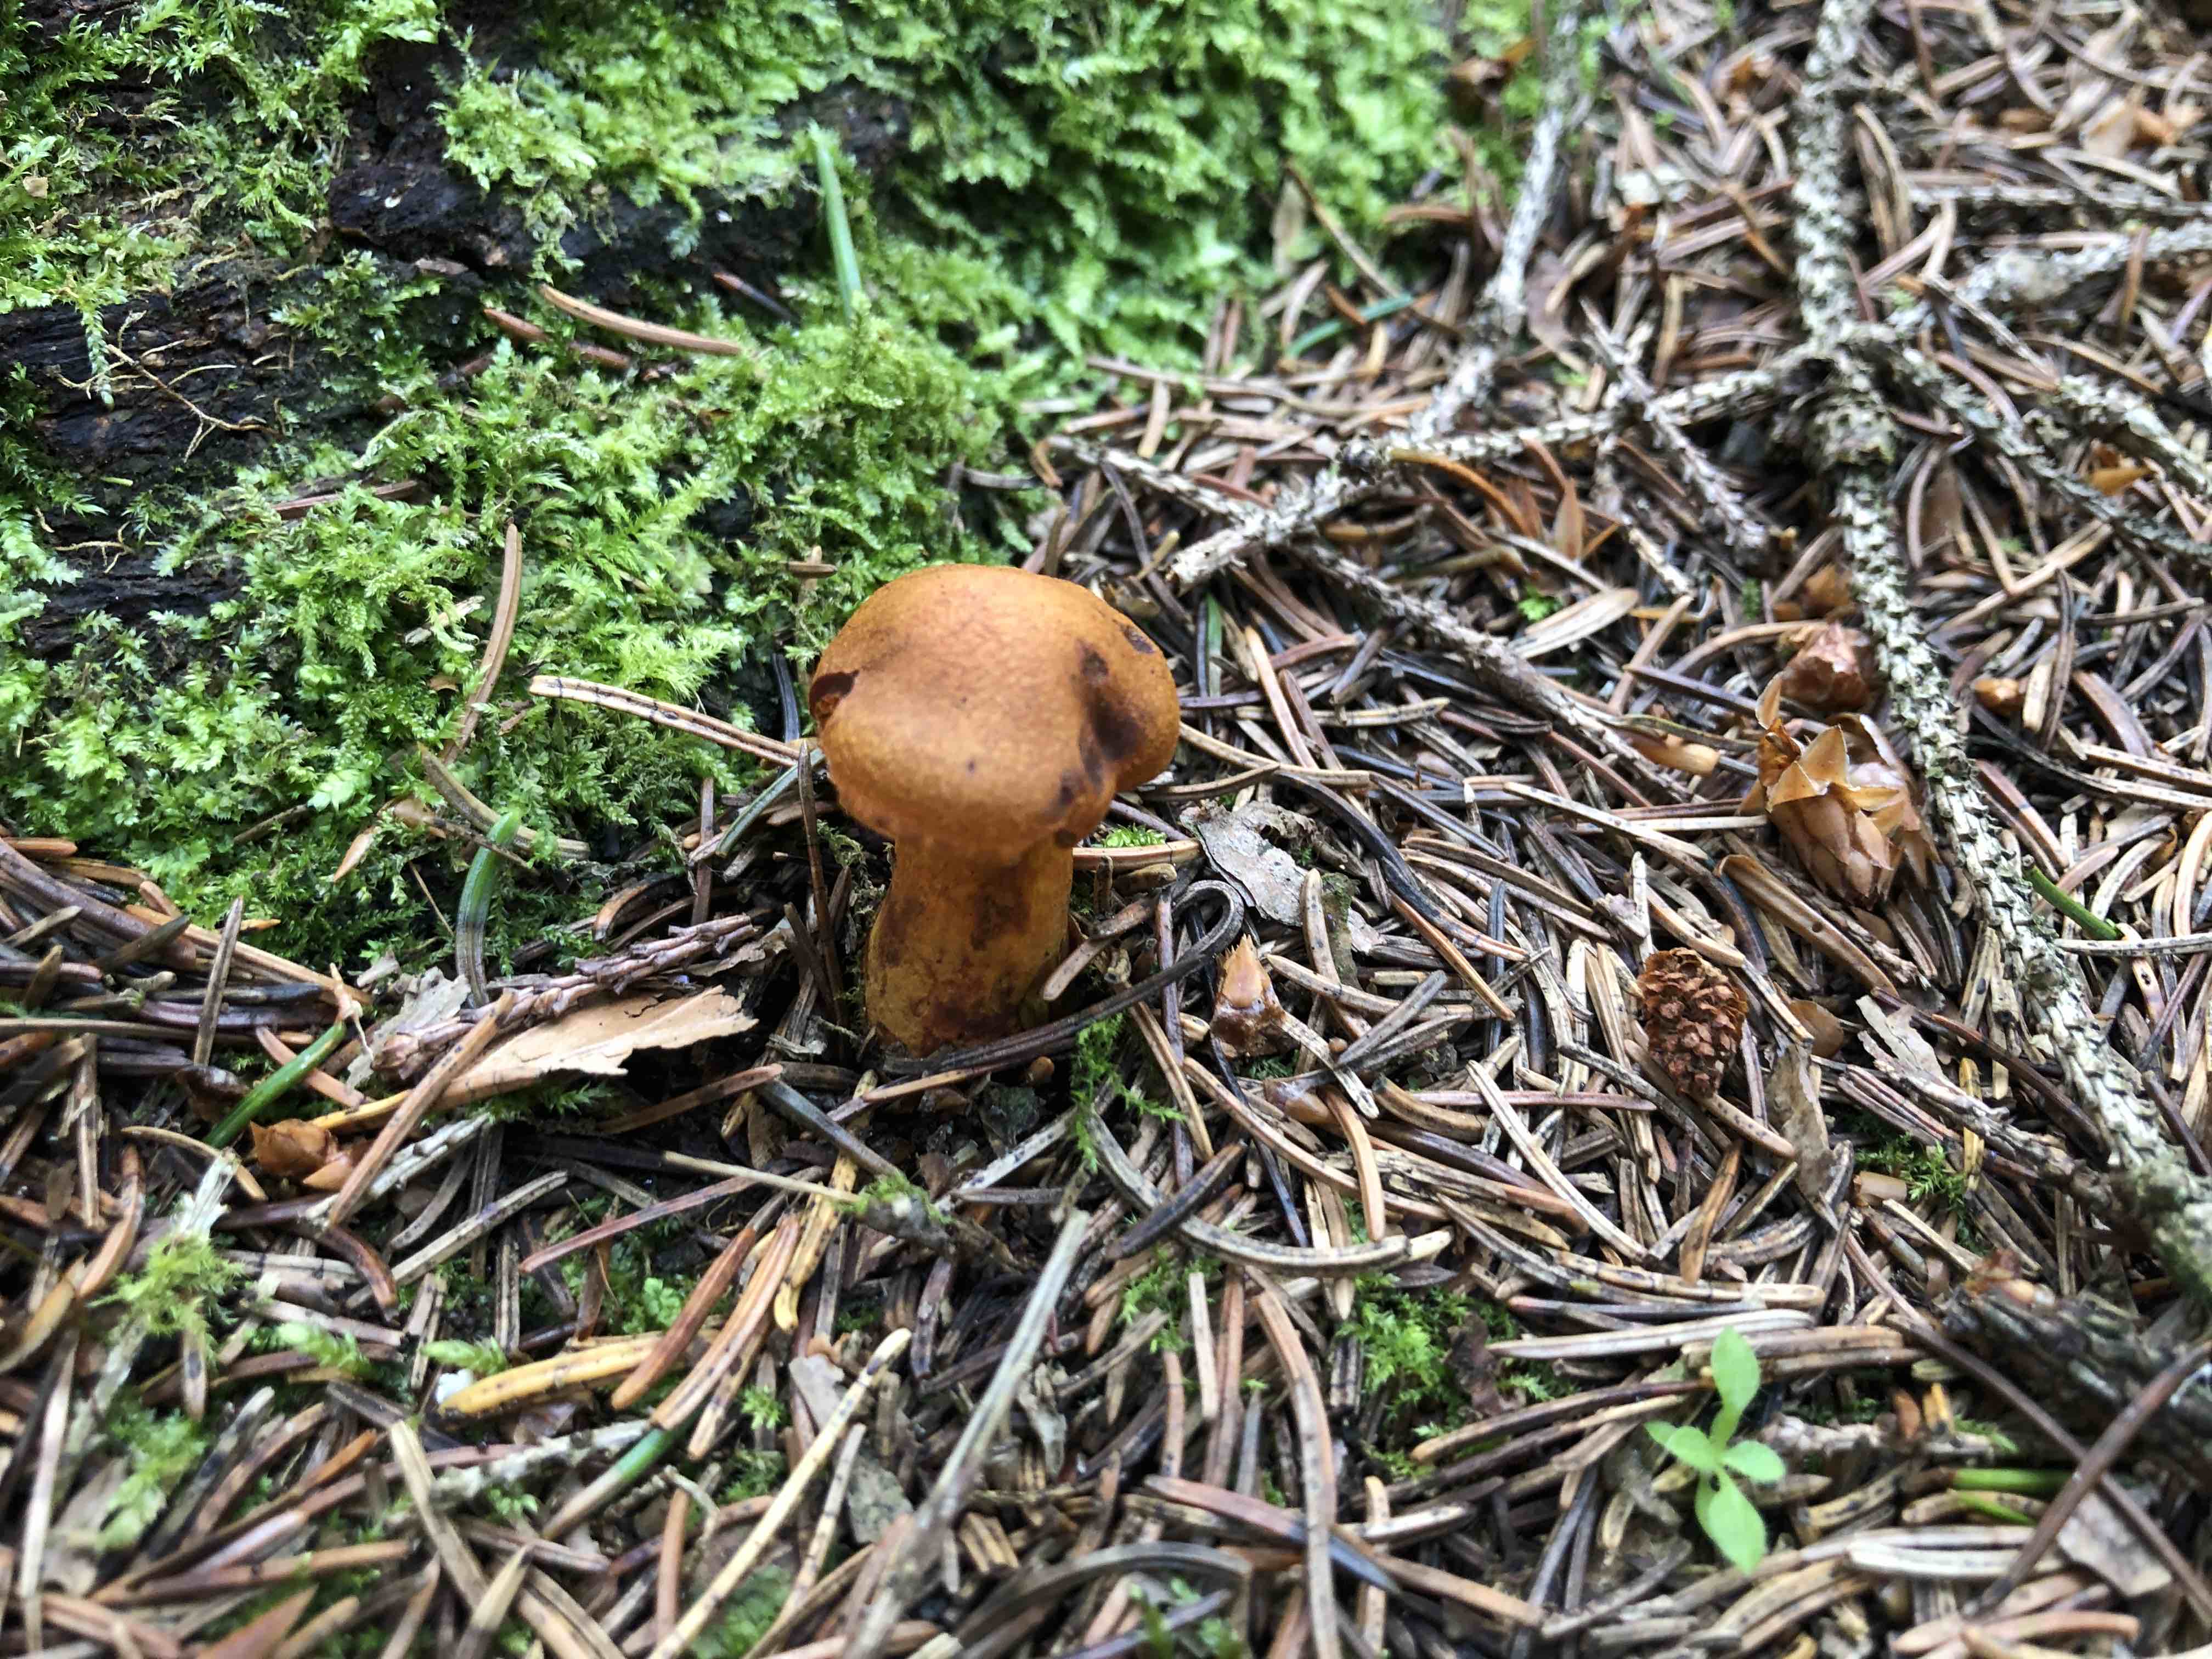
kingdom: Fungi
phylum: Basidiomycota
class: Agaricomycetes
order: Agaricales
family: Cortinariaceae
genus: Cortinarius
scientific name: Cortinarius malicorius
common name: grønkødet slørhat
